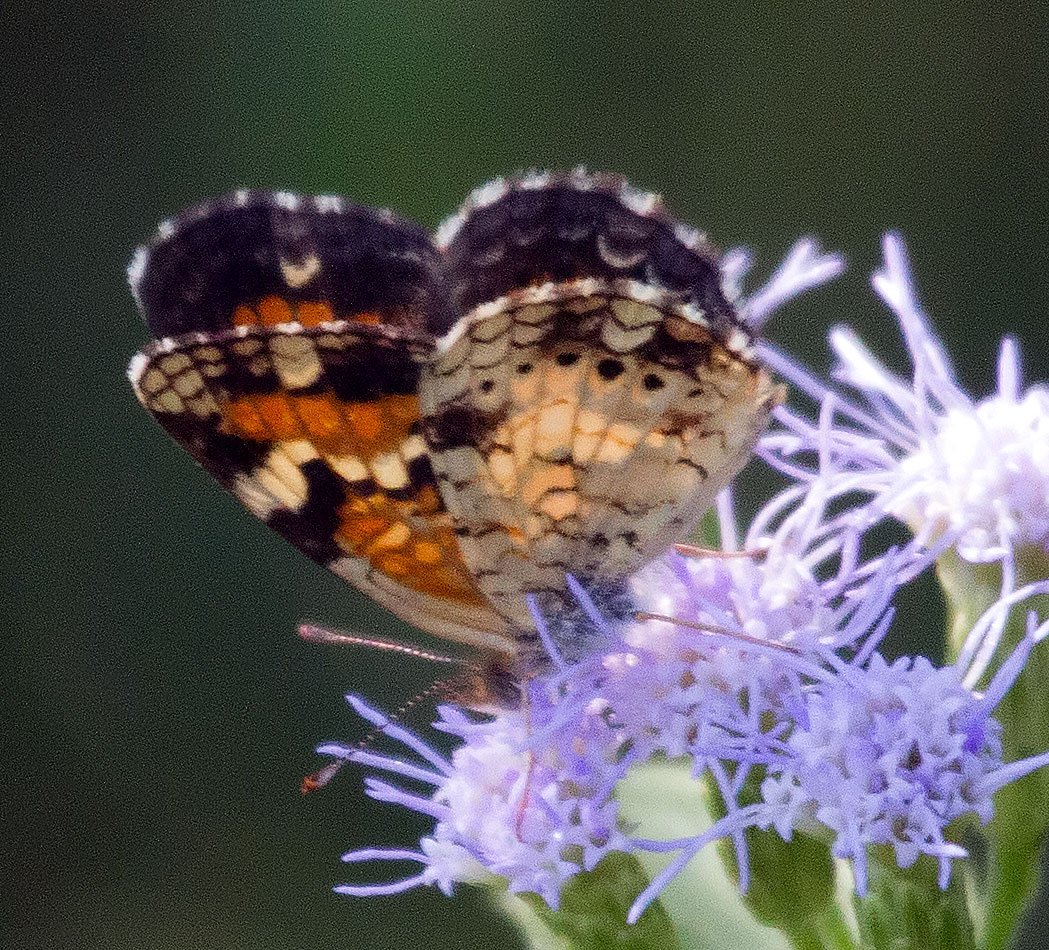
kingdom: Animalia
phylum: Arthropoda
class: Insecta
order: Lepidoptera
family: Nymphalidae
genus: Phyciodes
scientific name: Phyciodes phaon
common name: Phaon Crescent
